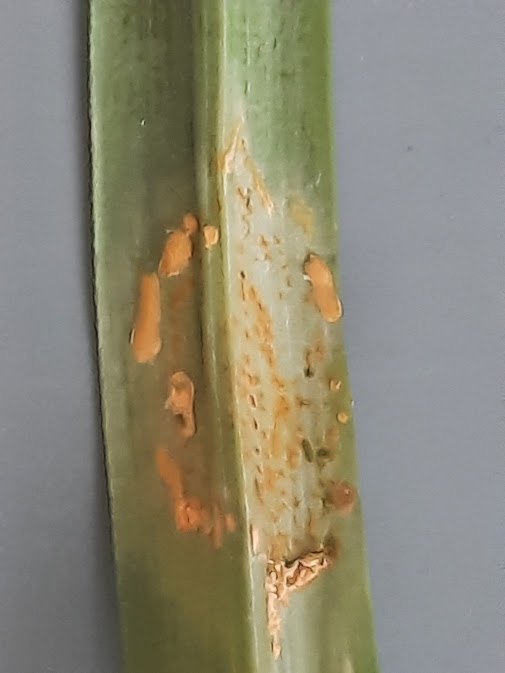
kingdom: Fungi
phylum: Basidiomycota
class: Pucciniomycetes
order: Pucciniales
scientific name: Pucciniales
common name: rustsvampeordenen
